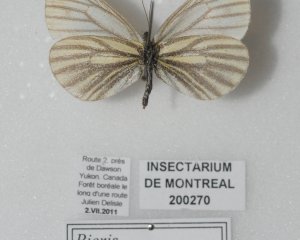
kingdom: Animalia
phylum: Arthropoda
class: Insecta
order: Lepidoptera
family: Pieridae
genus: Pieris
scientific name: Pieris angelika
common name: Arctic White
